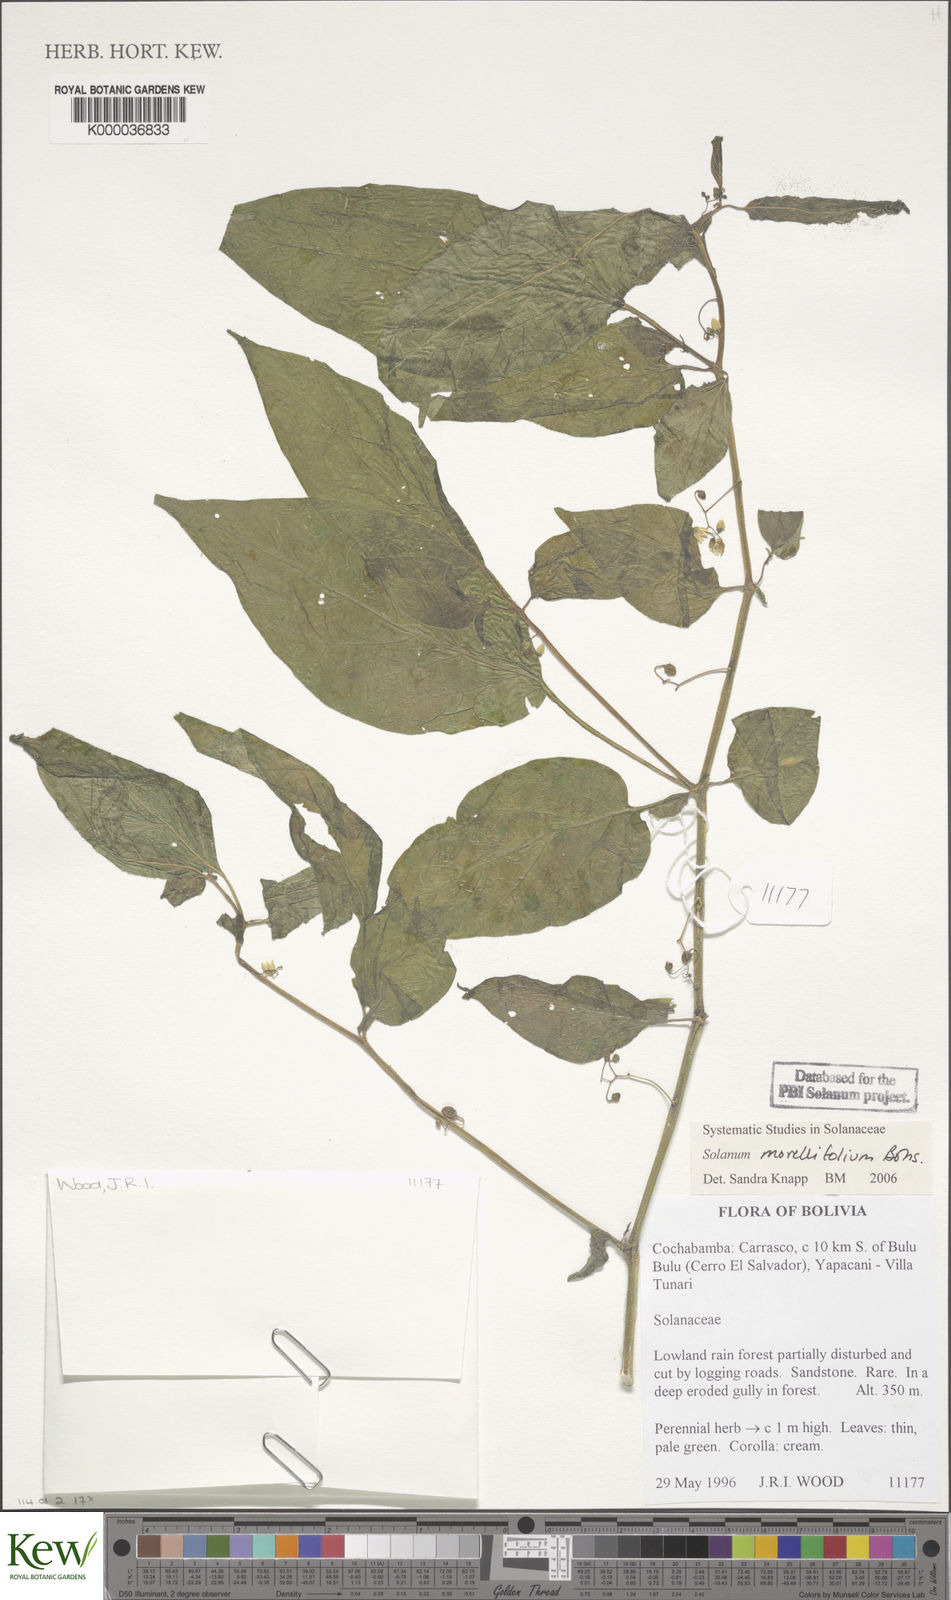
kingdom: Plantae
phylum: Tracheophyta
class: Magnoliopsida
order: Solanales
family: Solanaceae
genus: Solanum
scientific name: Solanum morellifolium
